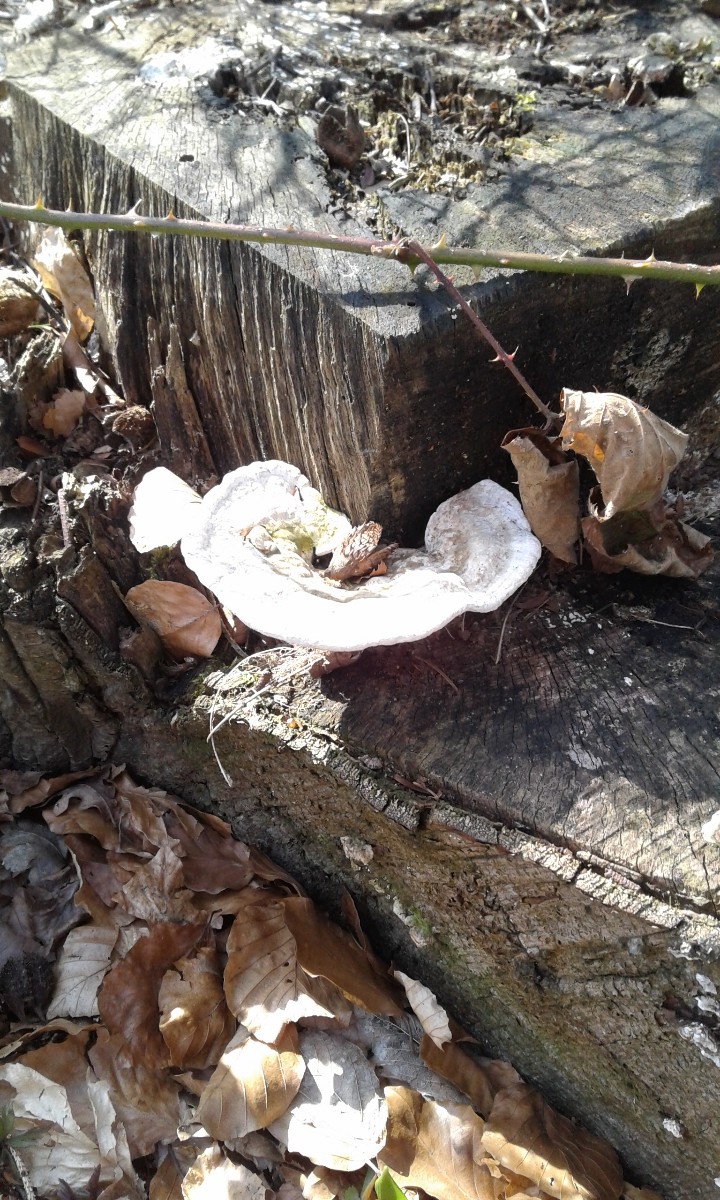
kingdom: Fungi
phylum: Basidiomycota
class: Agaricomycetes
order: Polyporales
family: Polyporaceae
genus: Trametes
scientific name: Trametes gibbosa
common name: puklet læderporesvamp
